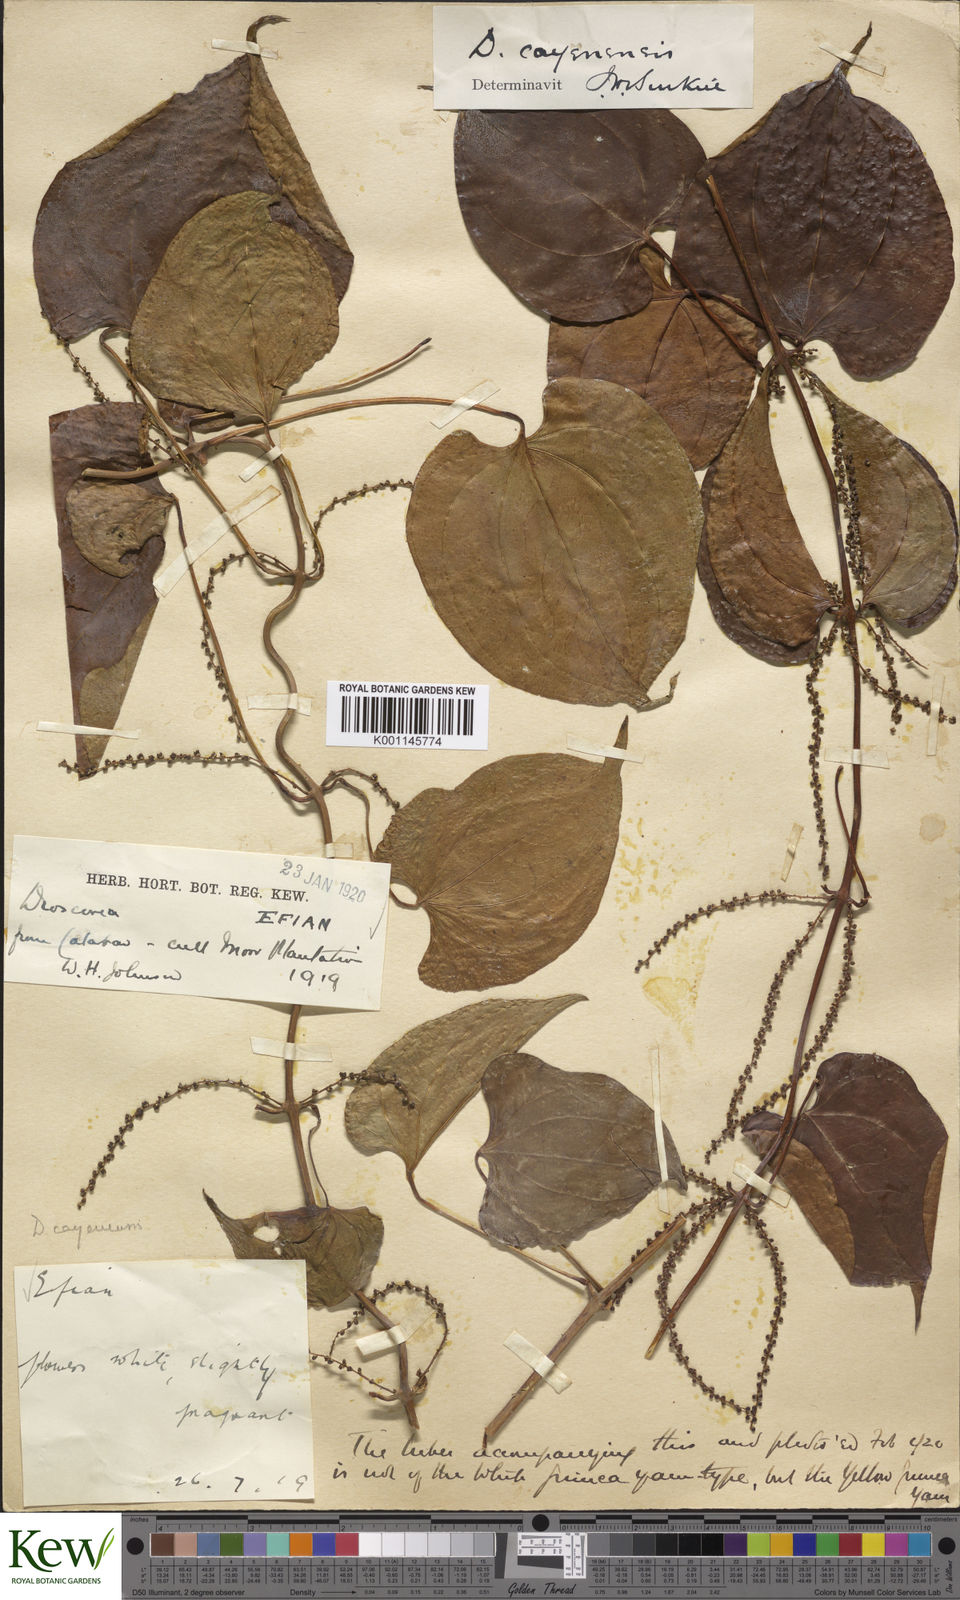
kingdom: Plantae
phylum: Tracheophyta
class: Liliopsida
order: Dioscoreales
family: Dioscoreaceae
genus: Dioscorea
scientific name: Dioscorea cayenensis
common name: Attoto yam
